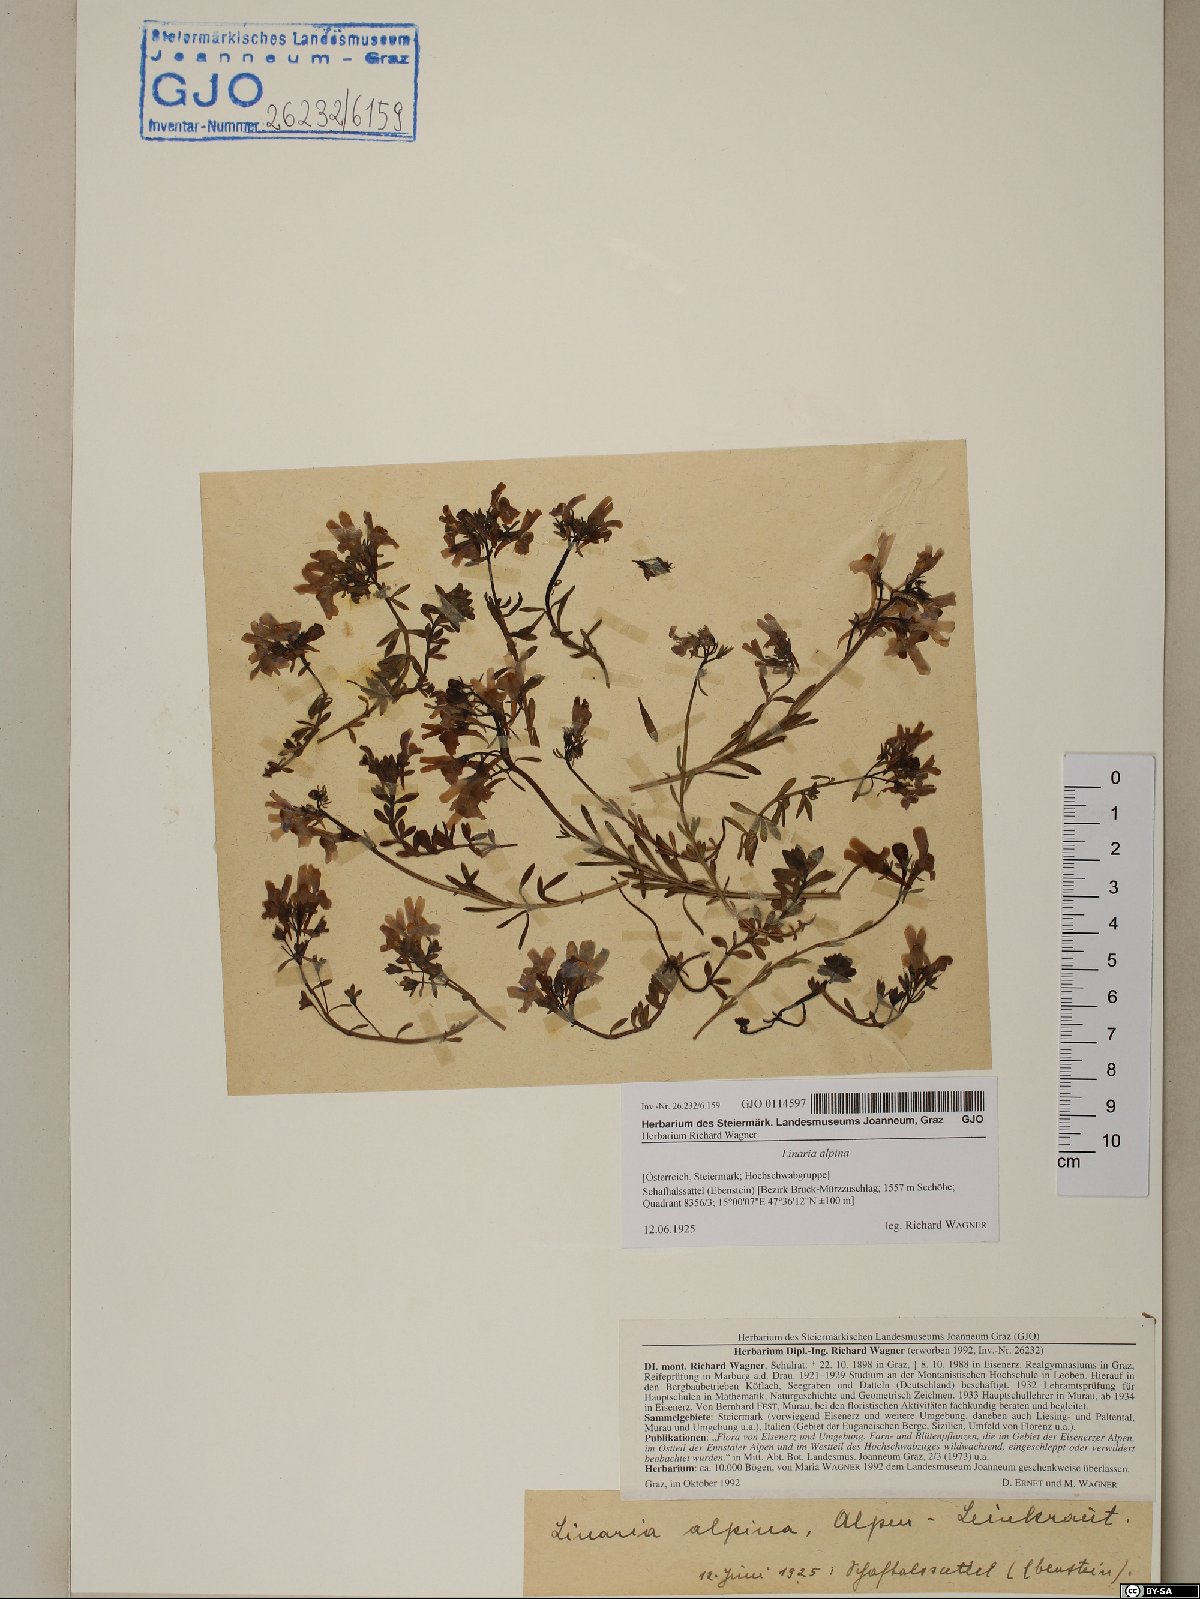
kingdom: Plantae
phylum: Tracheophyta
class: Magnoliopsida
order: Lamiales
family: Plantaginaceae
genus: Linaria
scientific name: Linaria alpina
